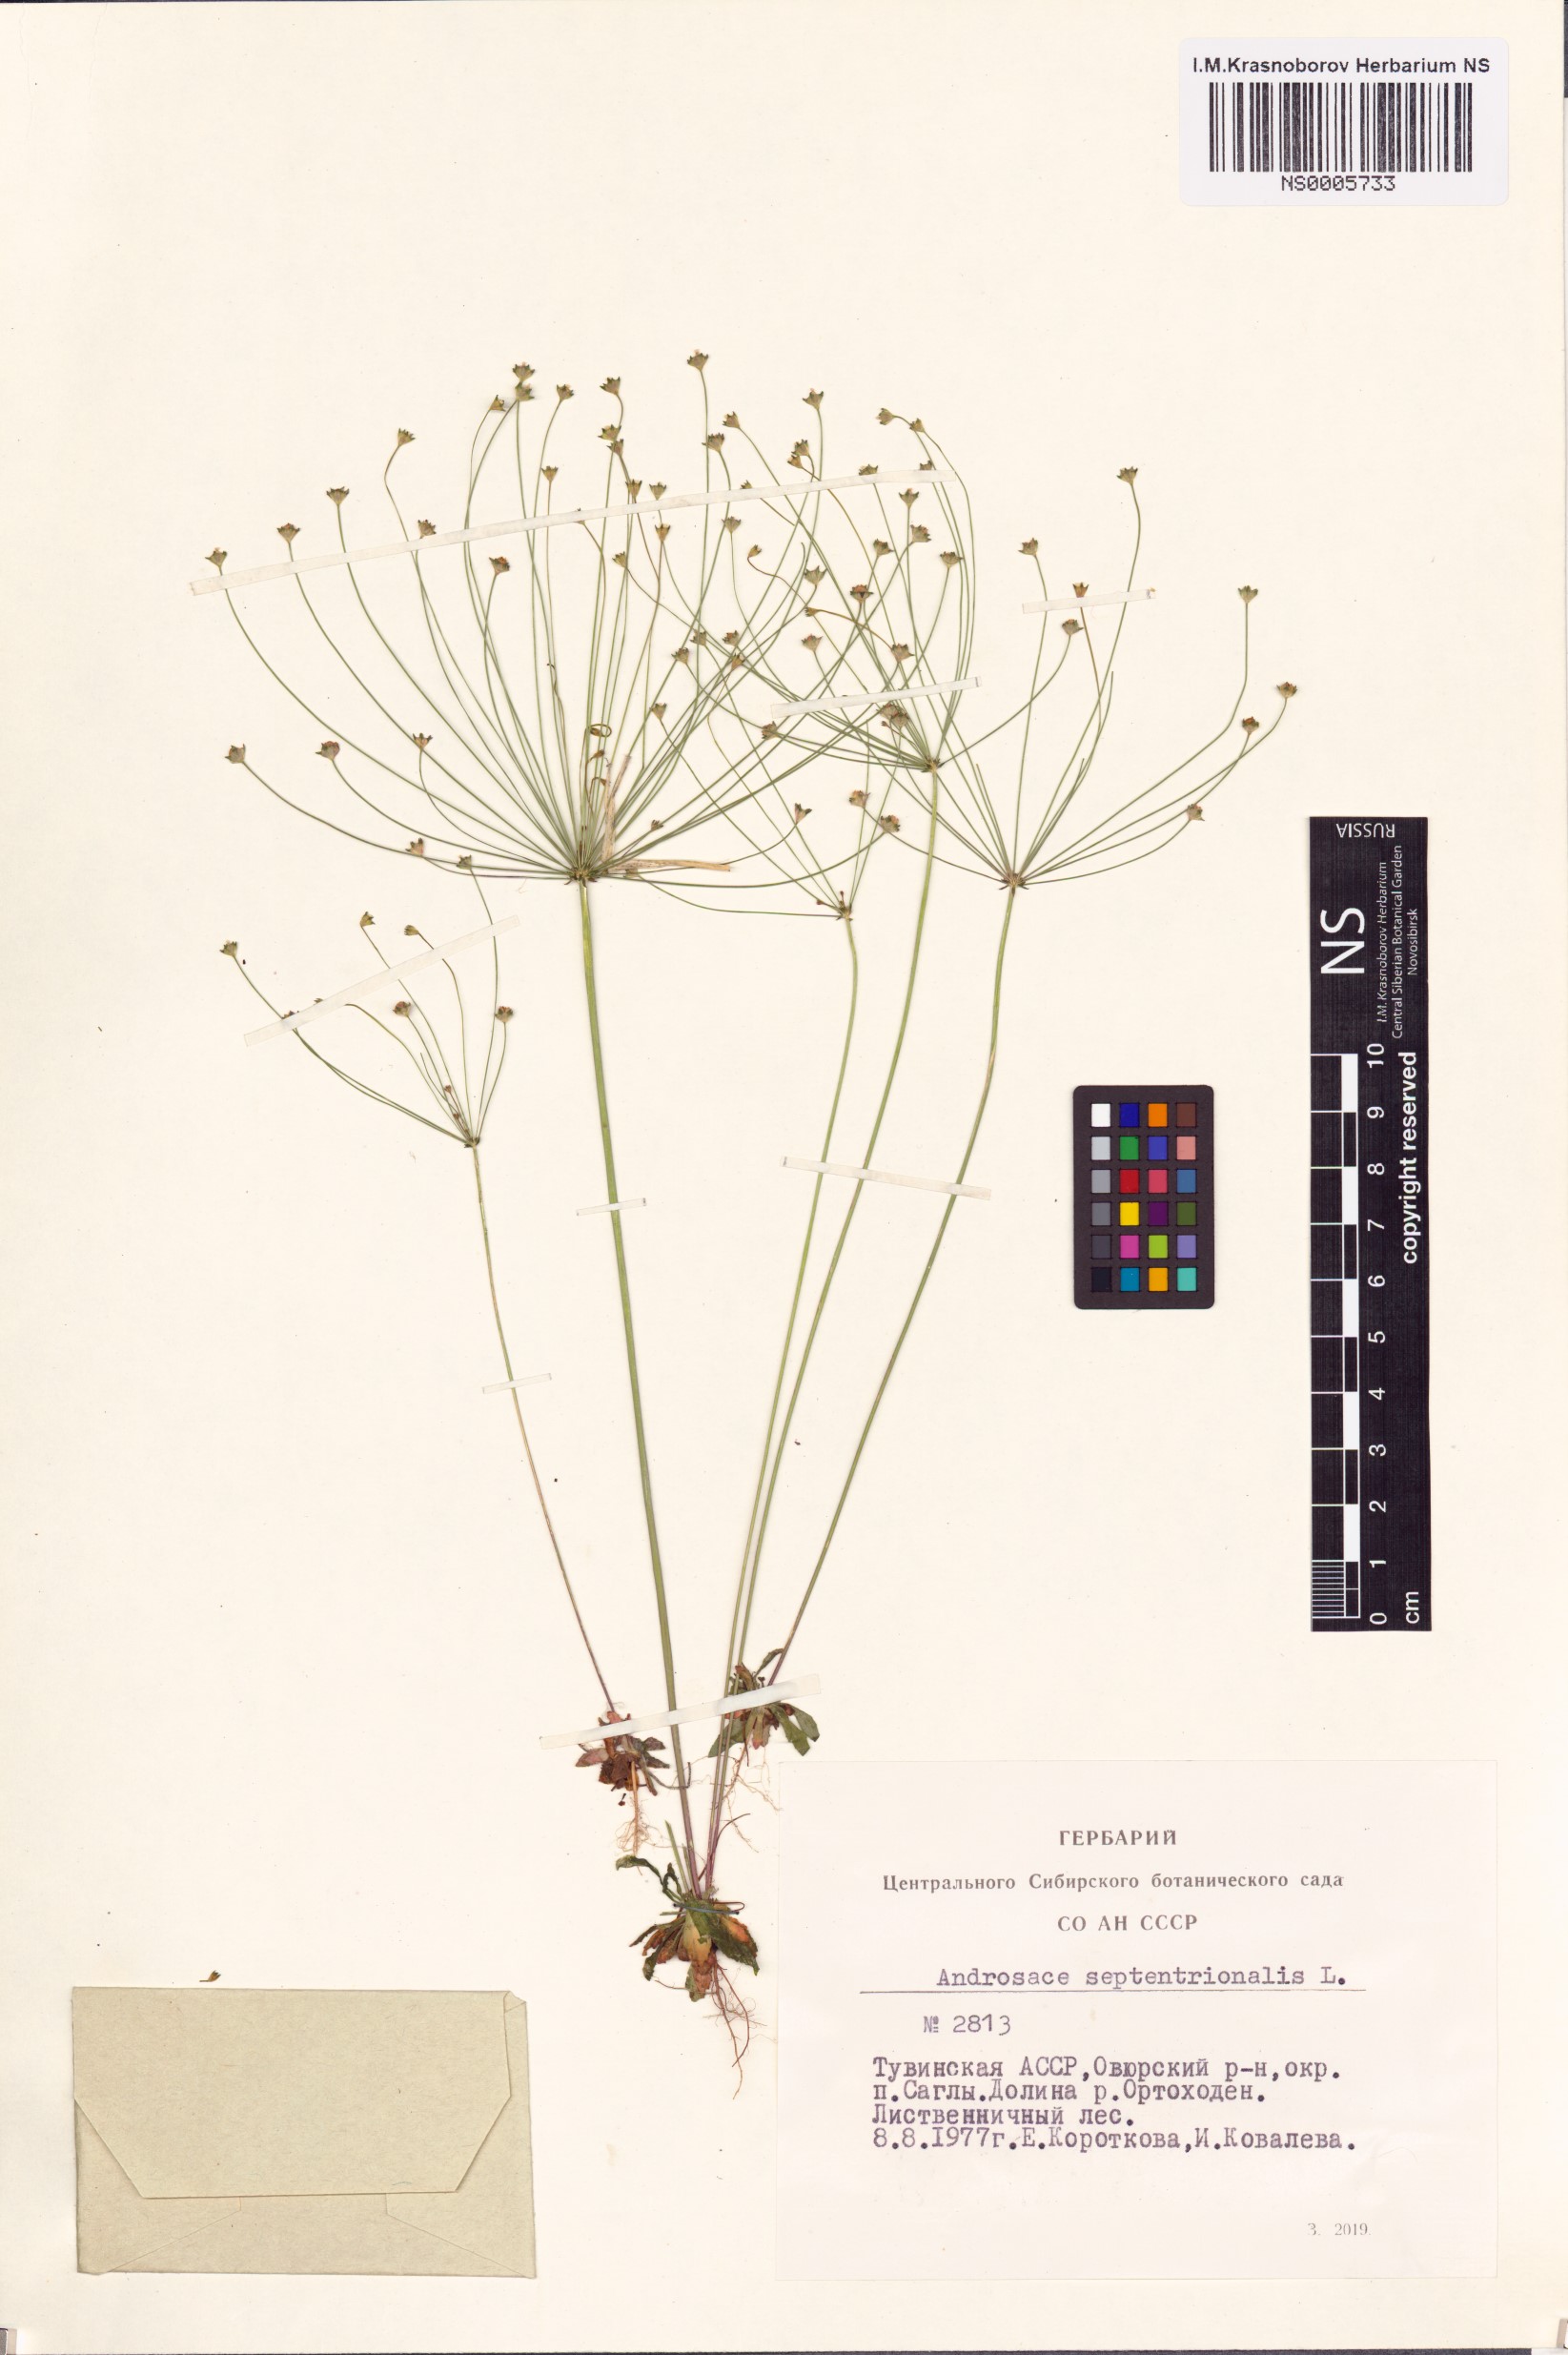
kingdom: Plantae
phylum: Tracheophyta
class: Magnoliopsida
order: Ericales
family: Primulaceae
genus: Androsace
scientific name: Androsace septentrionalis
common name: Hairy northern fairy-candelabra
